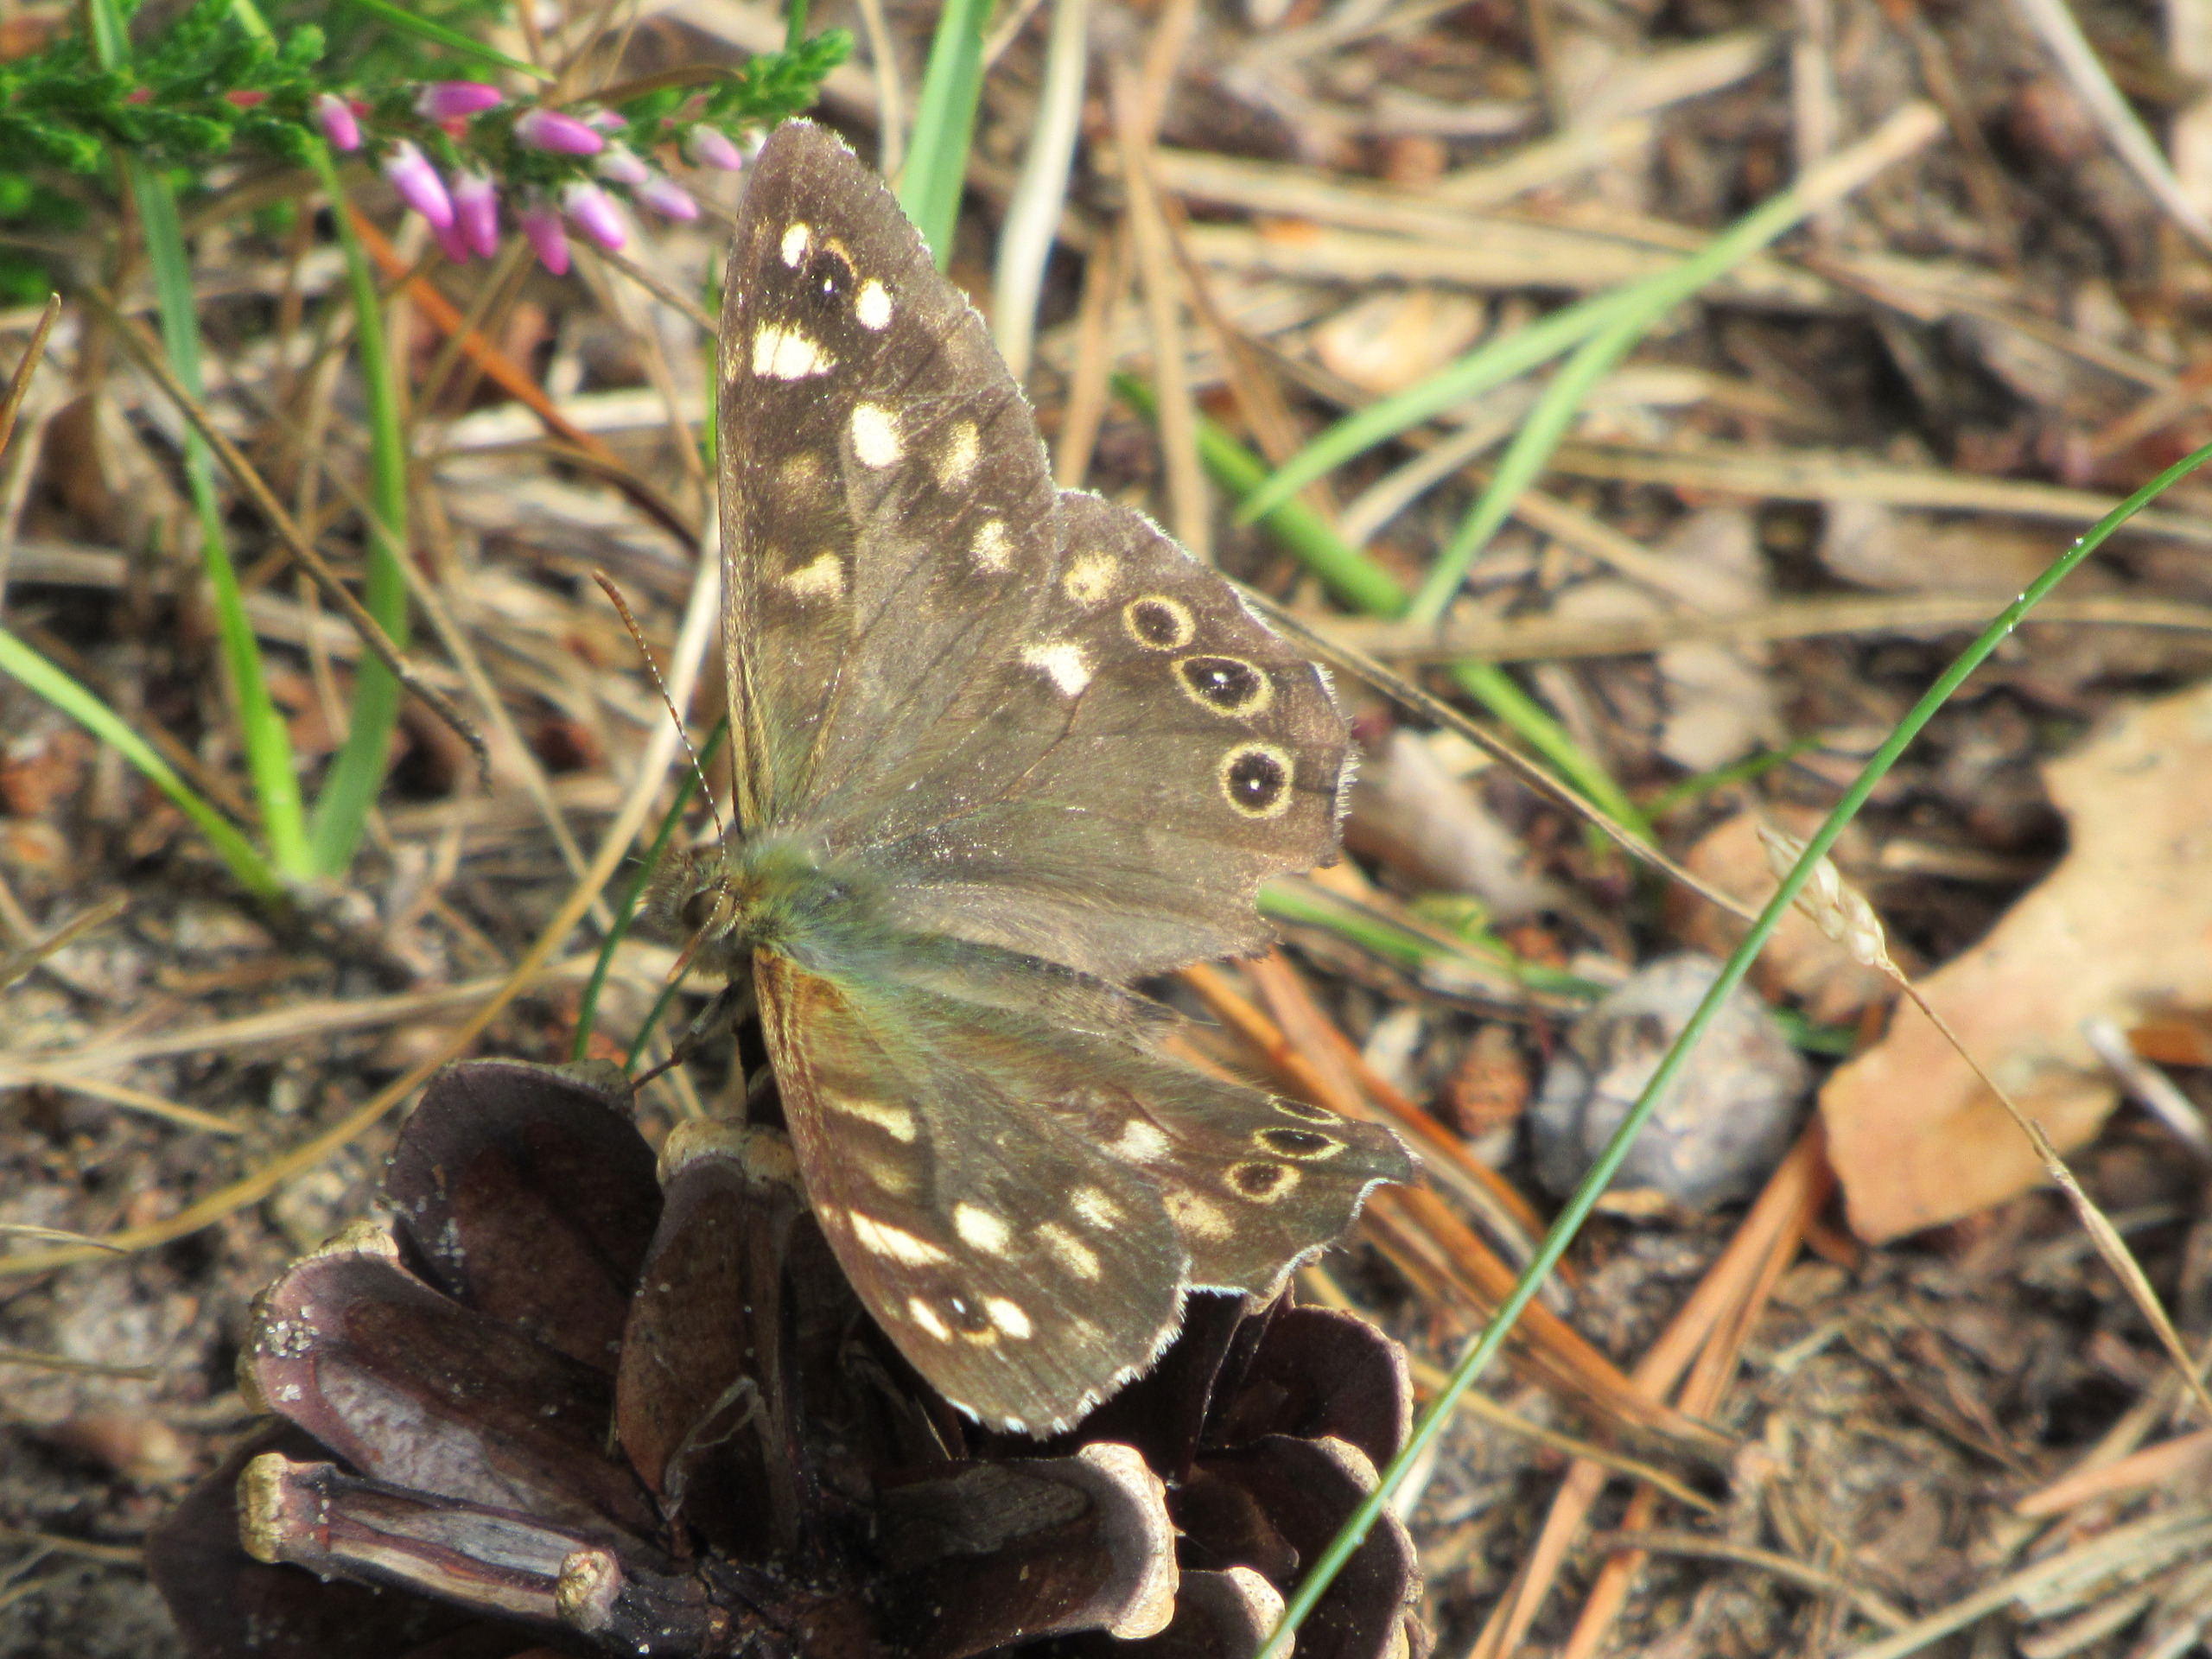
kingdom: Animalia
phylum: Arthropoda
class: Insecta
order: Lepidoptera
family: Nymphalidae
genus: Pararge
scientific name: Pararge aegeria
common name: Skovrandøje
